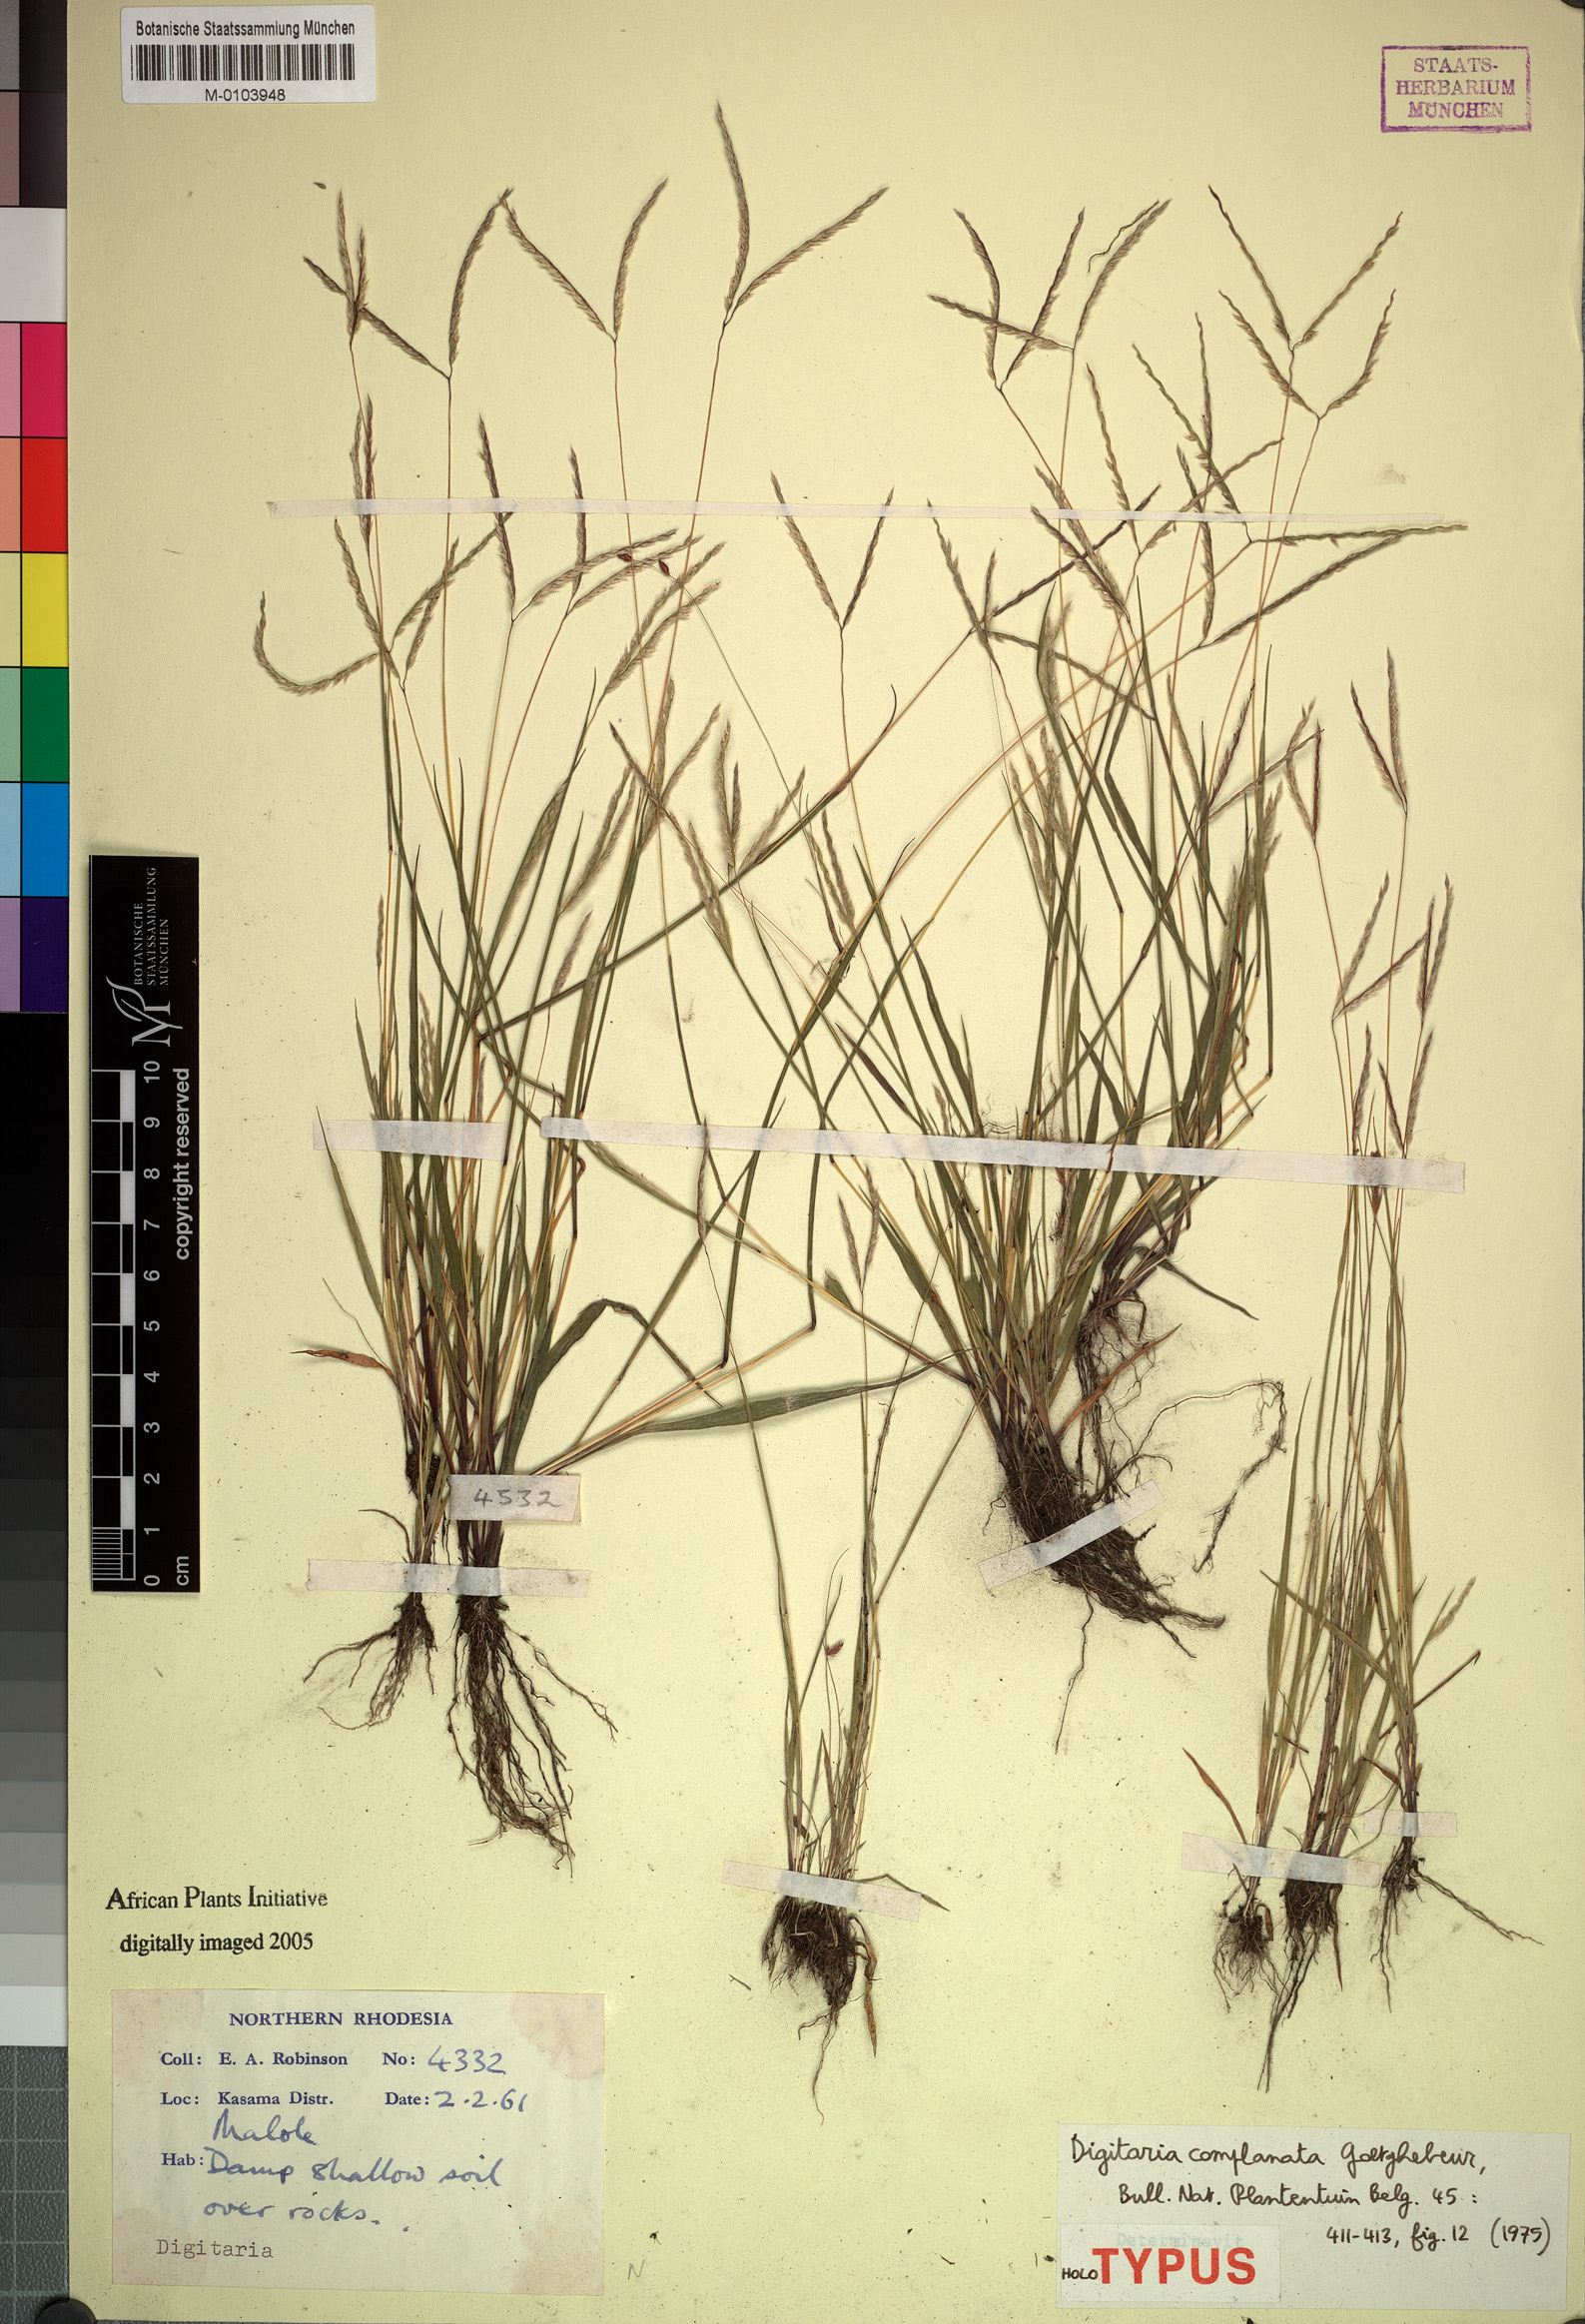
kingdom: Plantae
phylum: Tracheophyta
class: Liliopsida
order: Poales
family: Poaceae
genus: Digitaria
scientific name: Digitaria complanata
